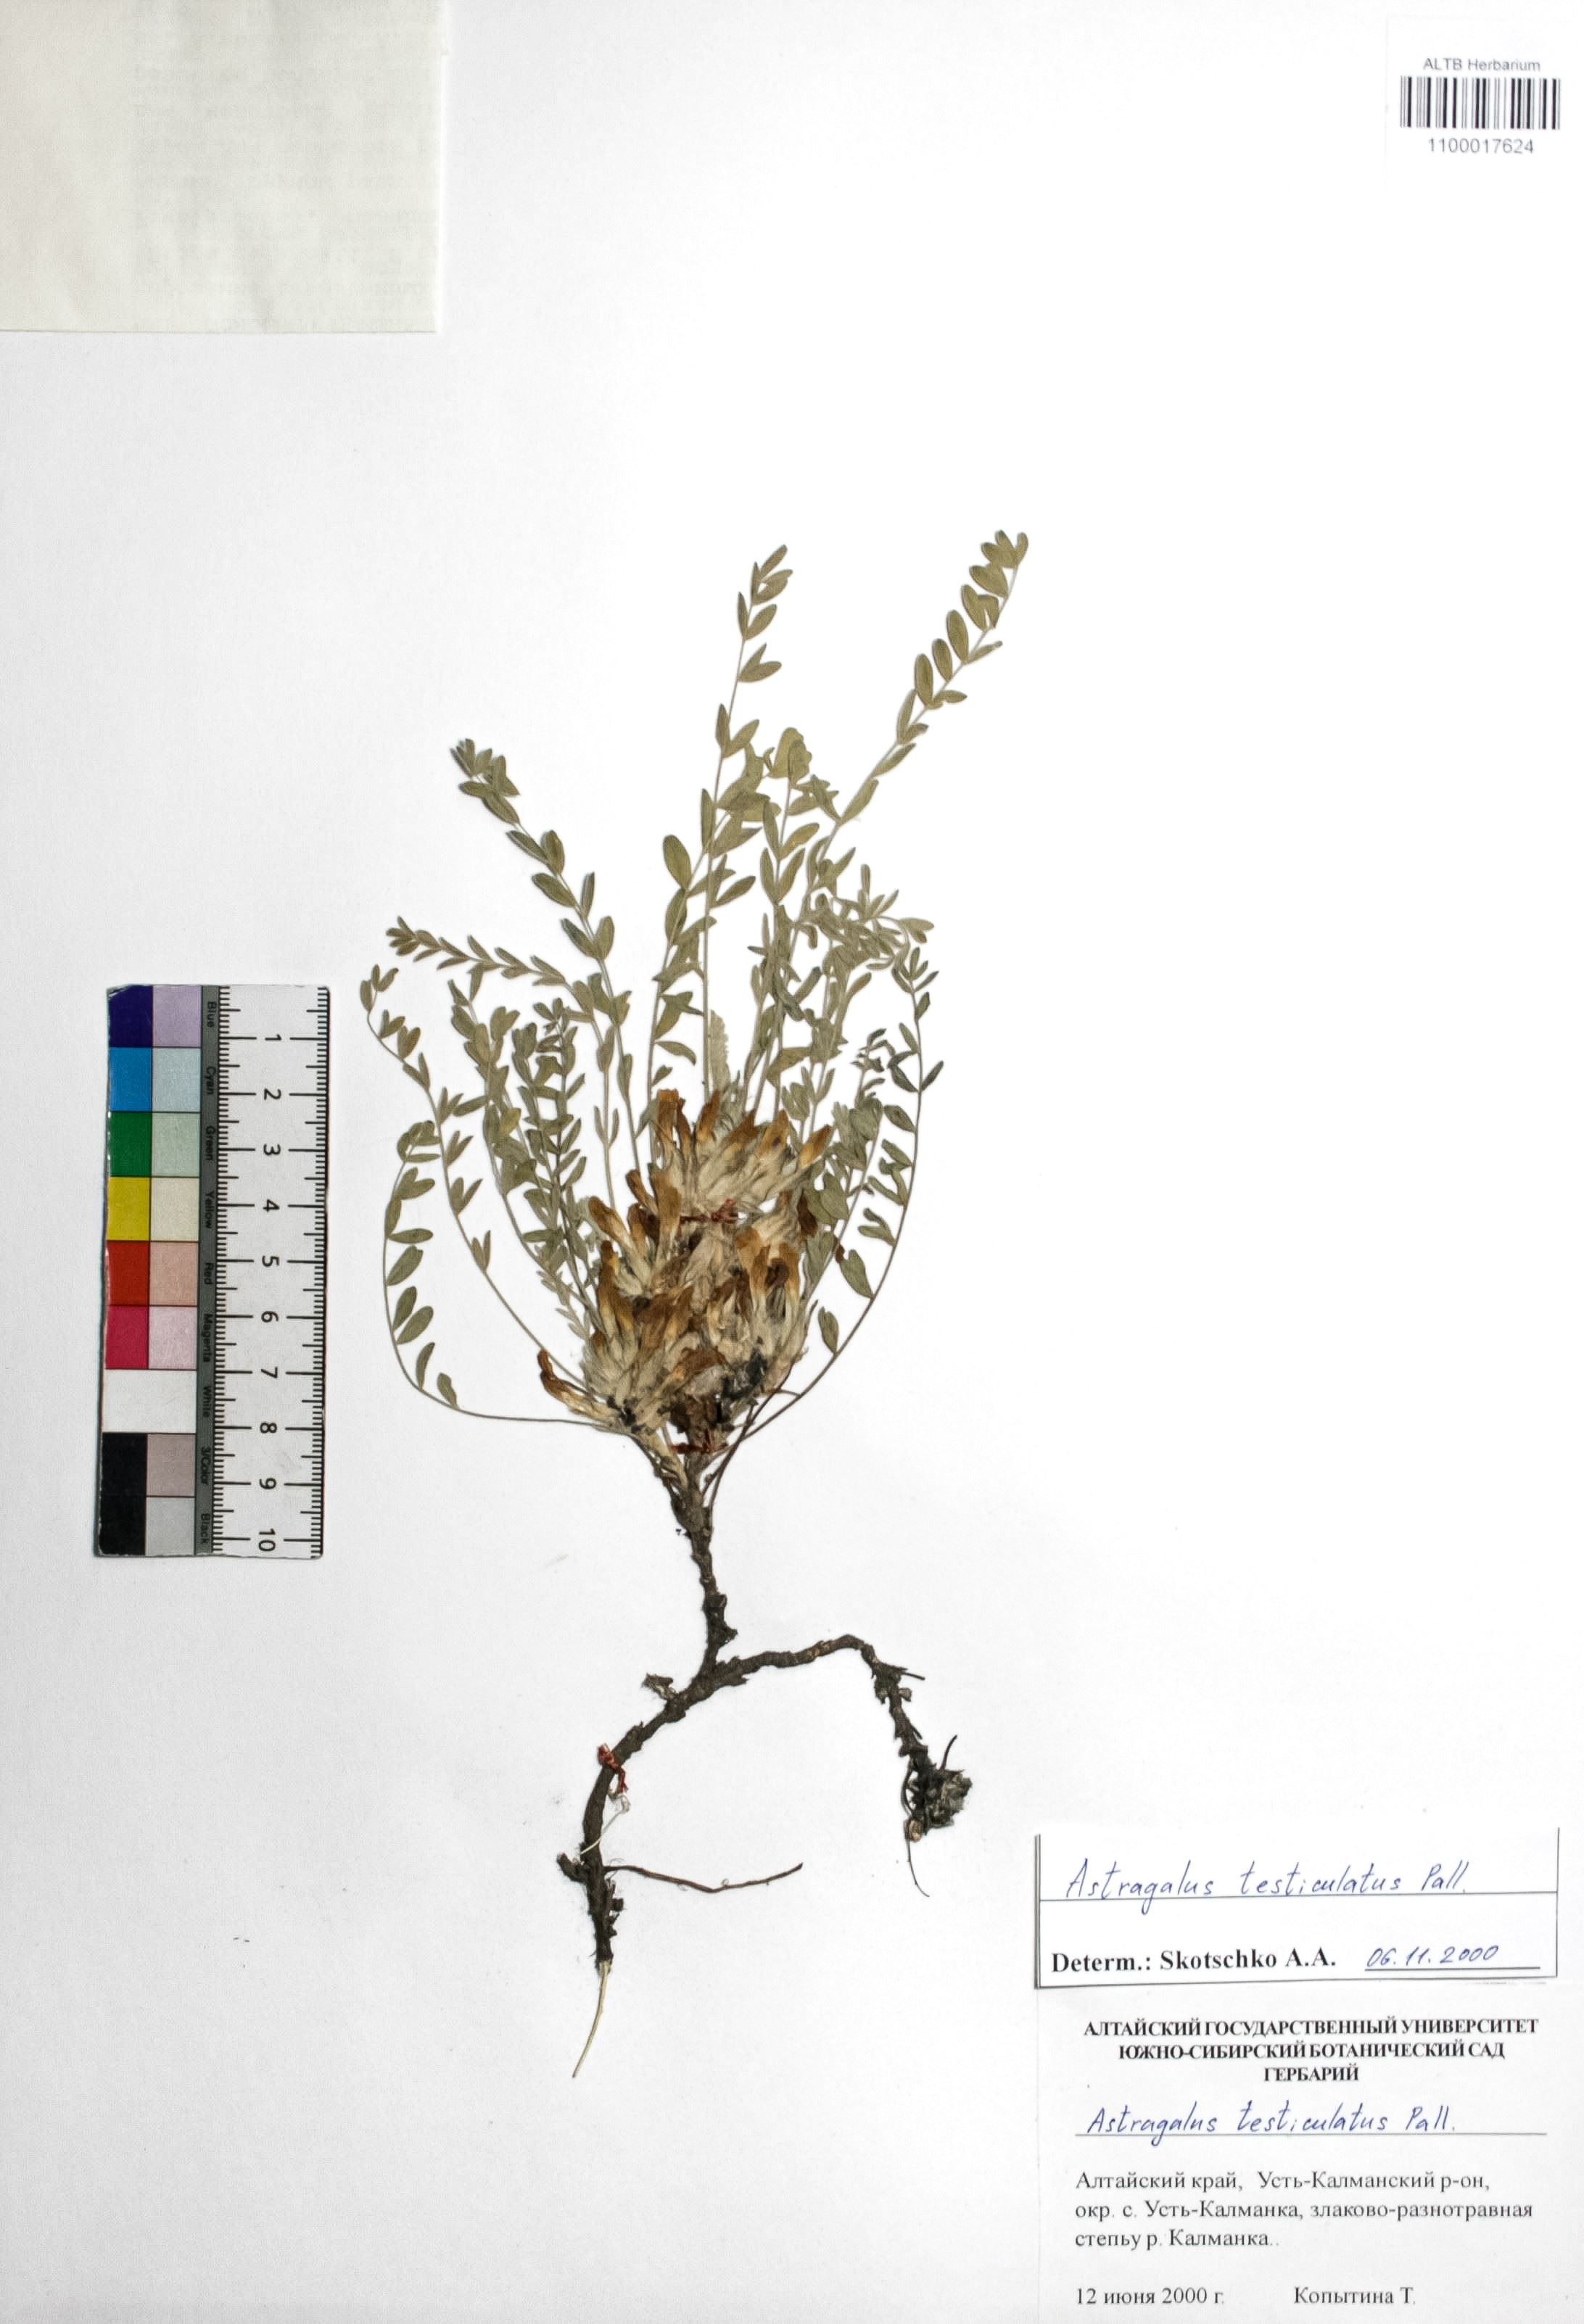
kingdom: Plantae
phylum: Tracheophyta
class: Magnoliopsida
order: Fabales
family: Fabaceae
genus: Astragalus
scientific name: Astragalus testiculatus
